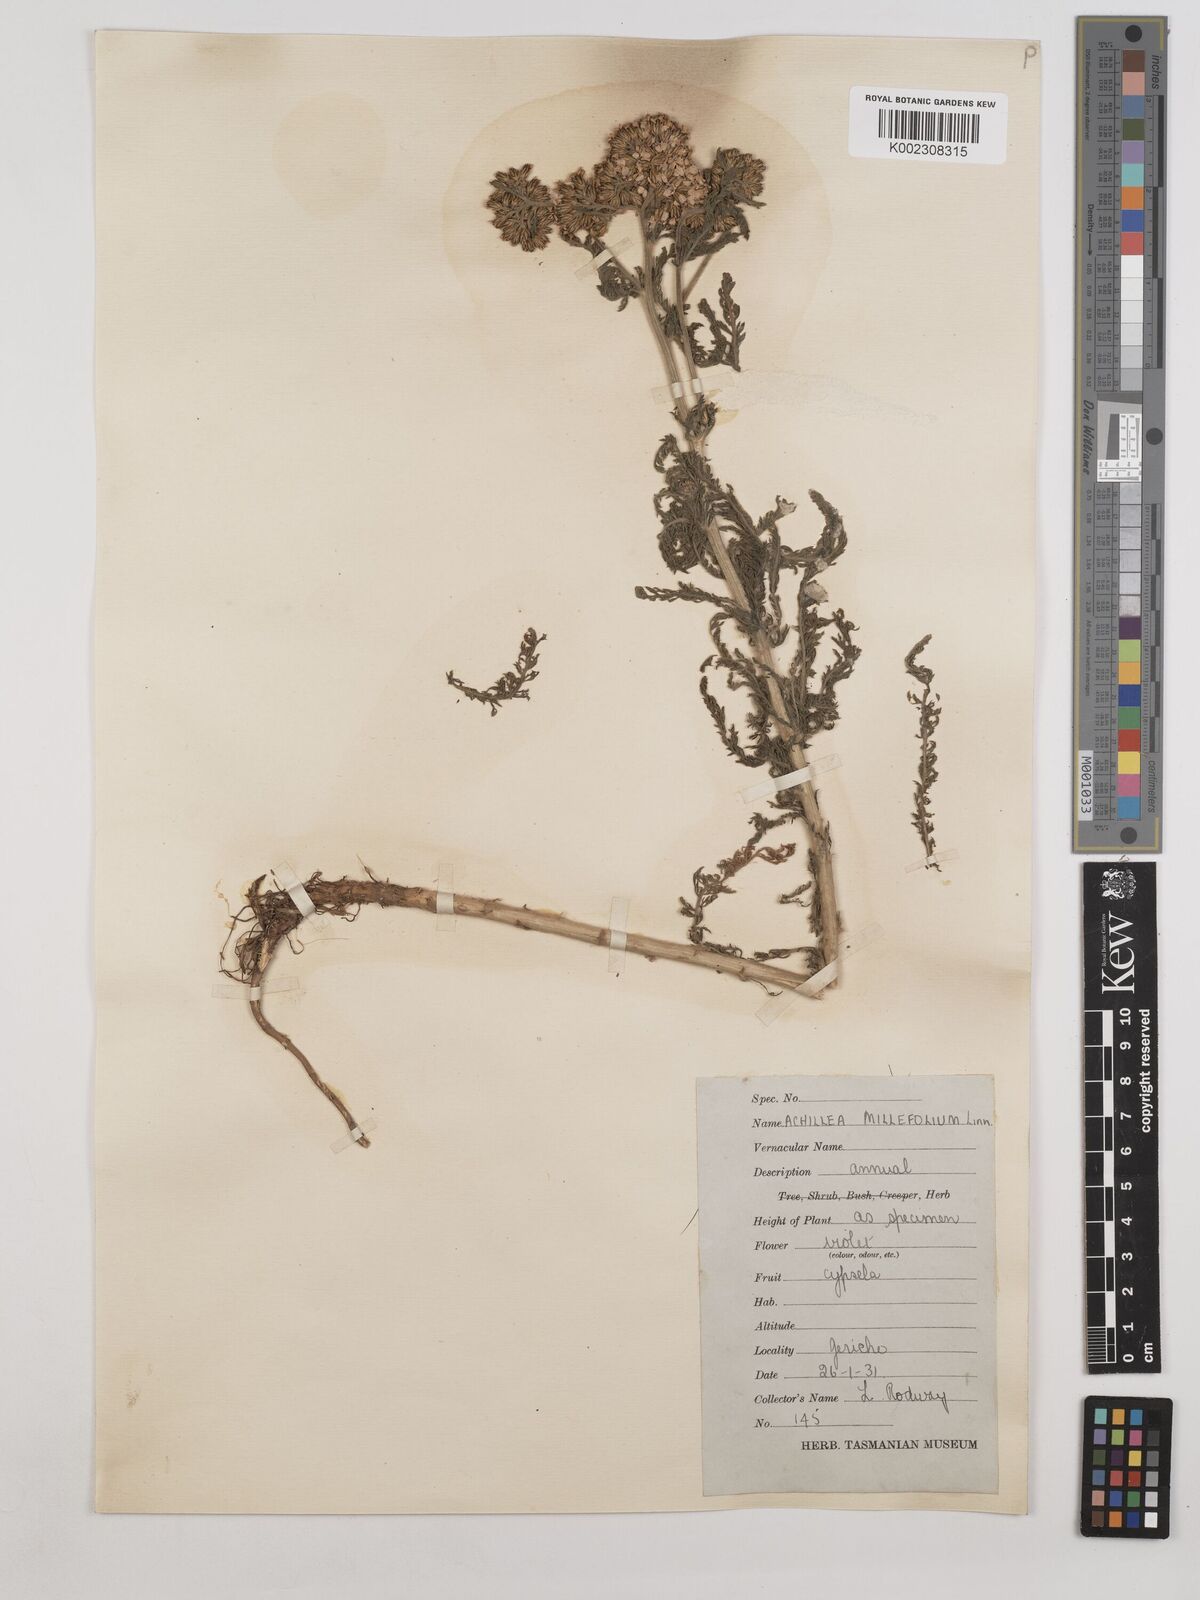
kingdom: Plantae
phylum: Tracheophyta
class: Magnoliopsida
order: Asterales
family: Asteraceae
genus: Achillea
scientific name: Achillea millefolium
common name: Yarrow
